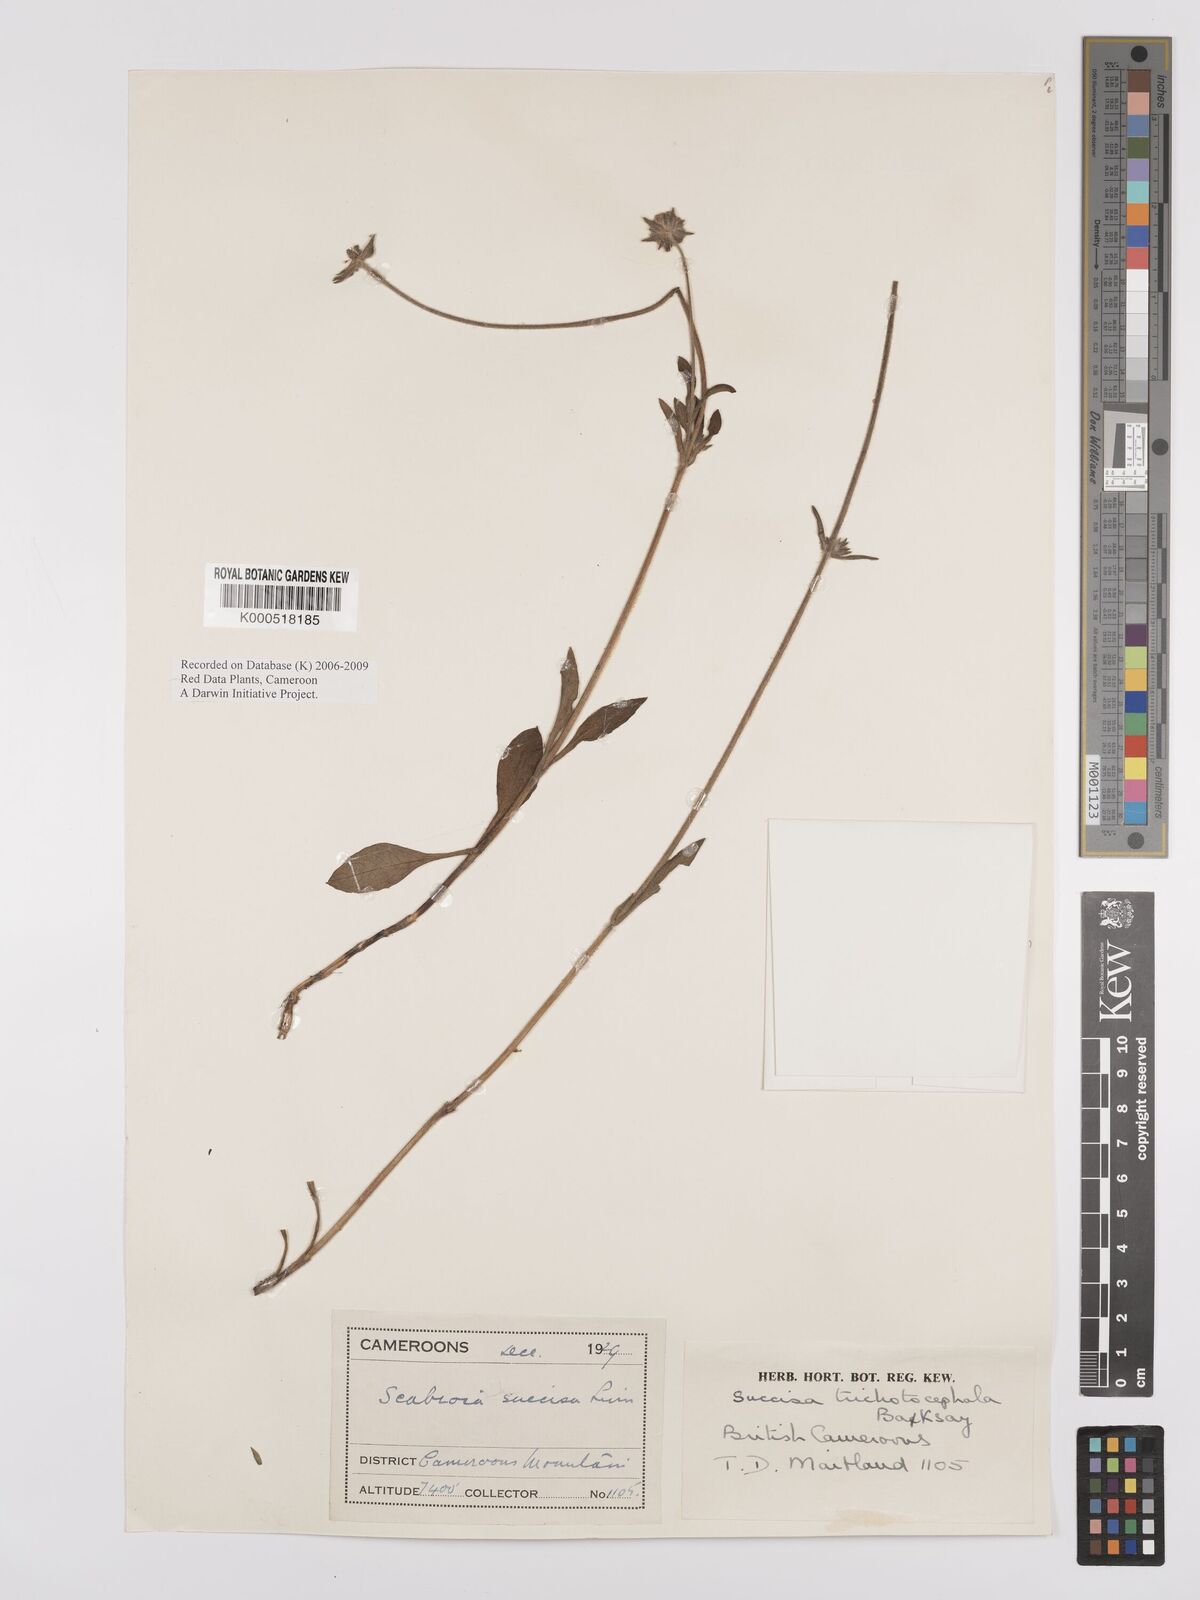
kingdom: Plantae
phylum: Tracheophyta
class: Magnoliopsida
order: Dipsacales
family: Caprifoliaceae
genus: Succisa
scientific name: Succisa trichotocephala
